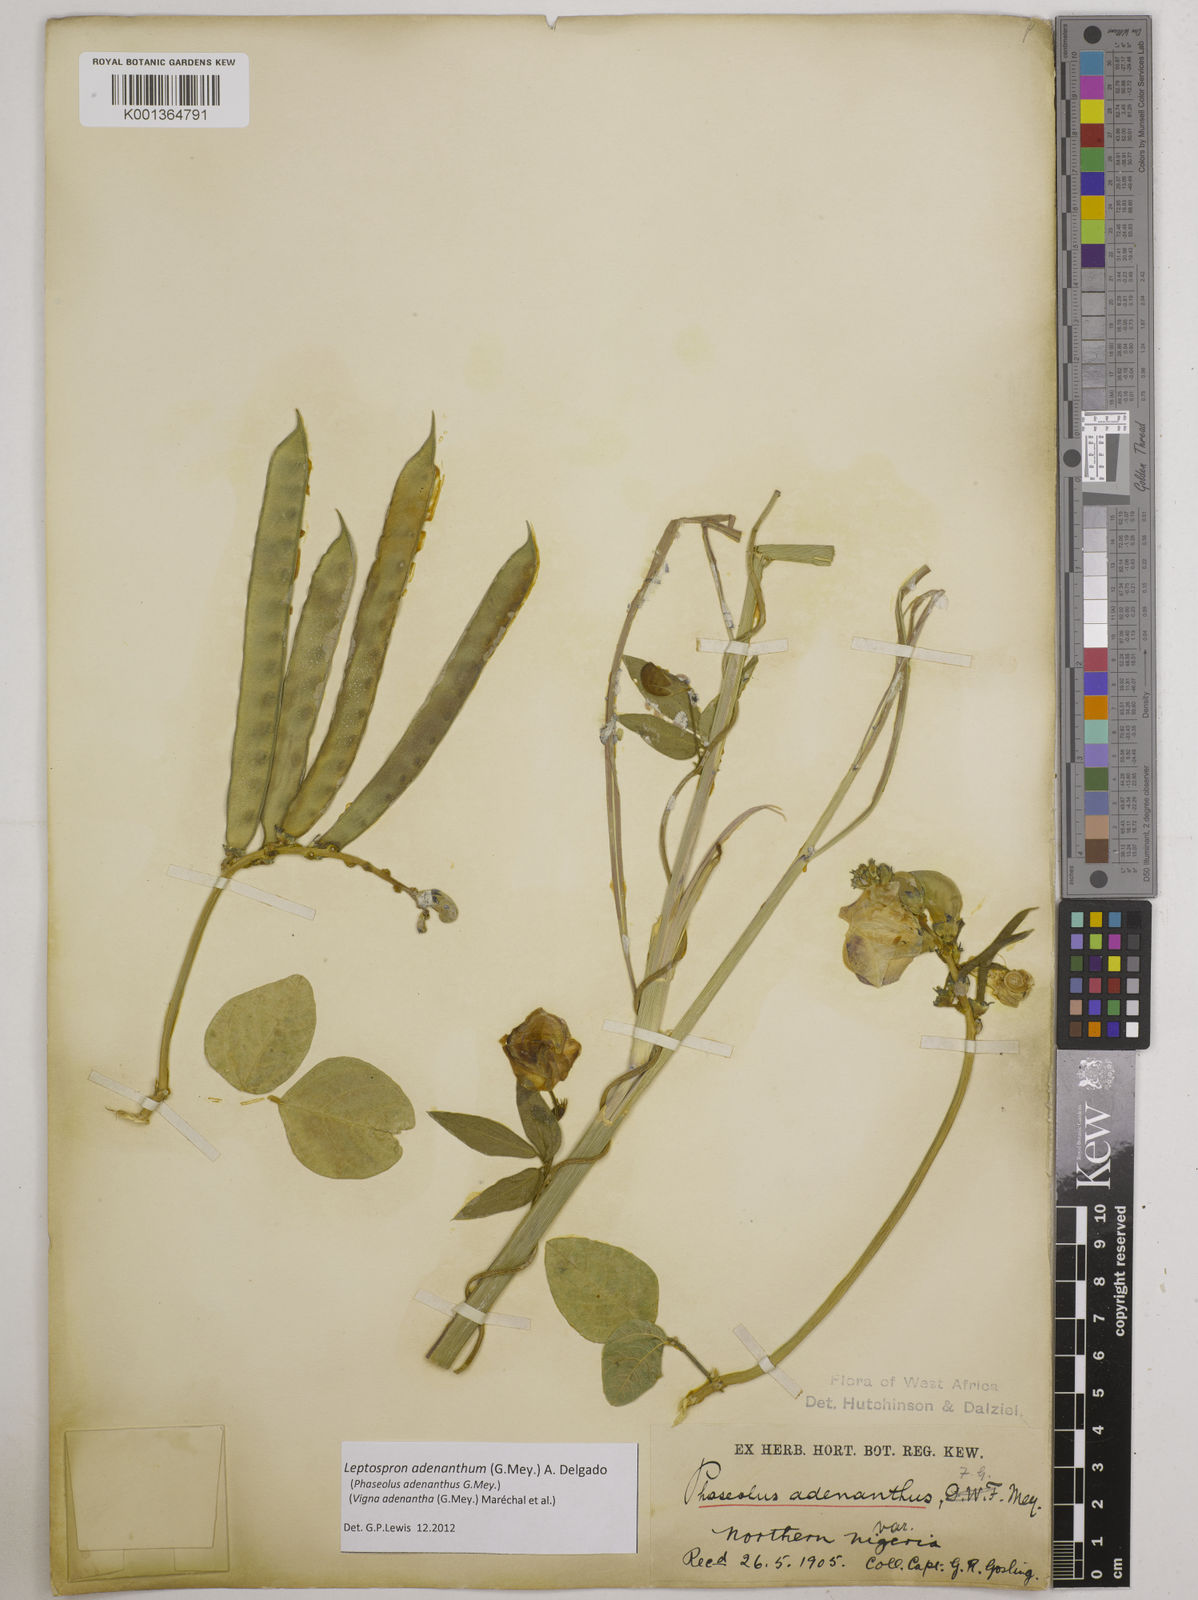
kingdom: Plantae
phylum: Tracheophyta
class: Magnoliopsida
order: Fabales
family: Fabaceae
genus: Leptospron
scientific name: Leptospron adenanthum
